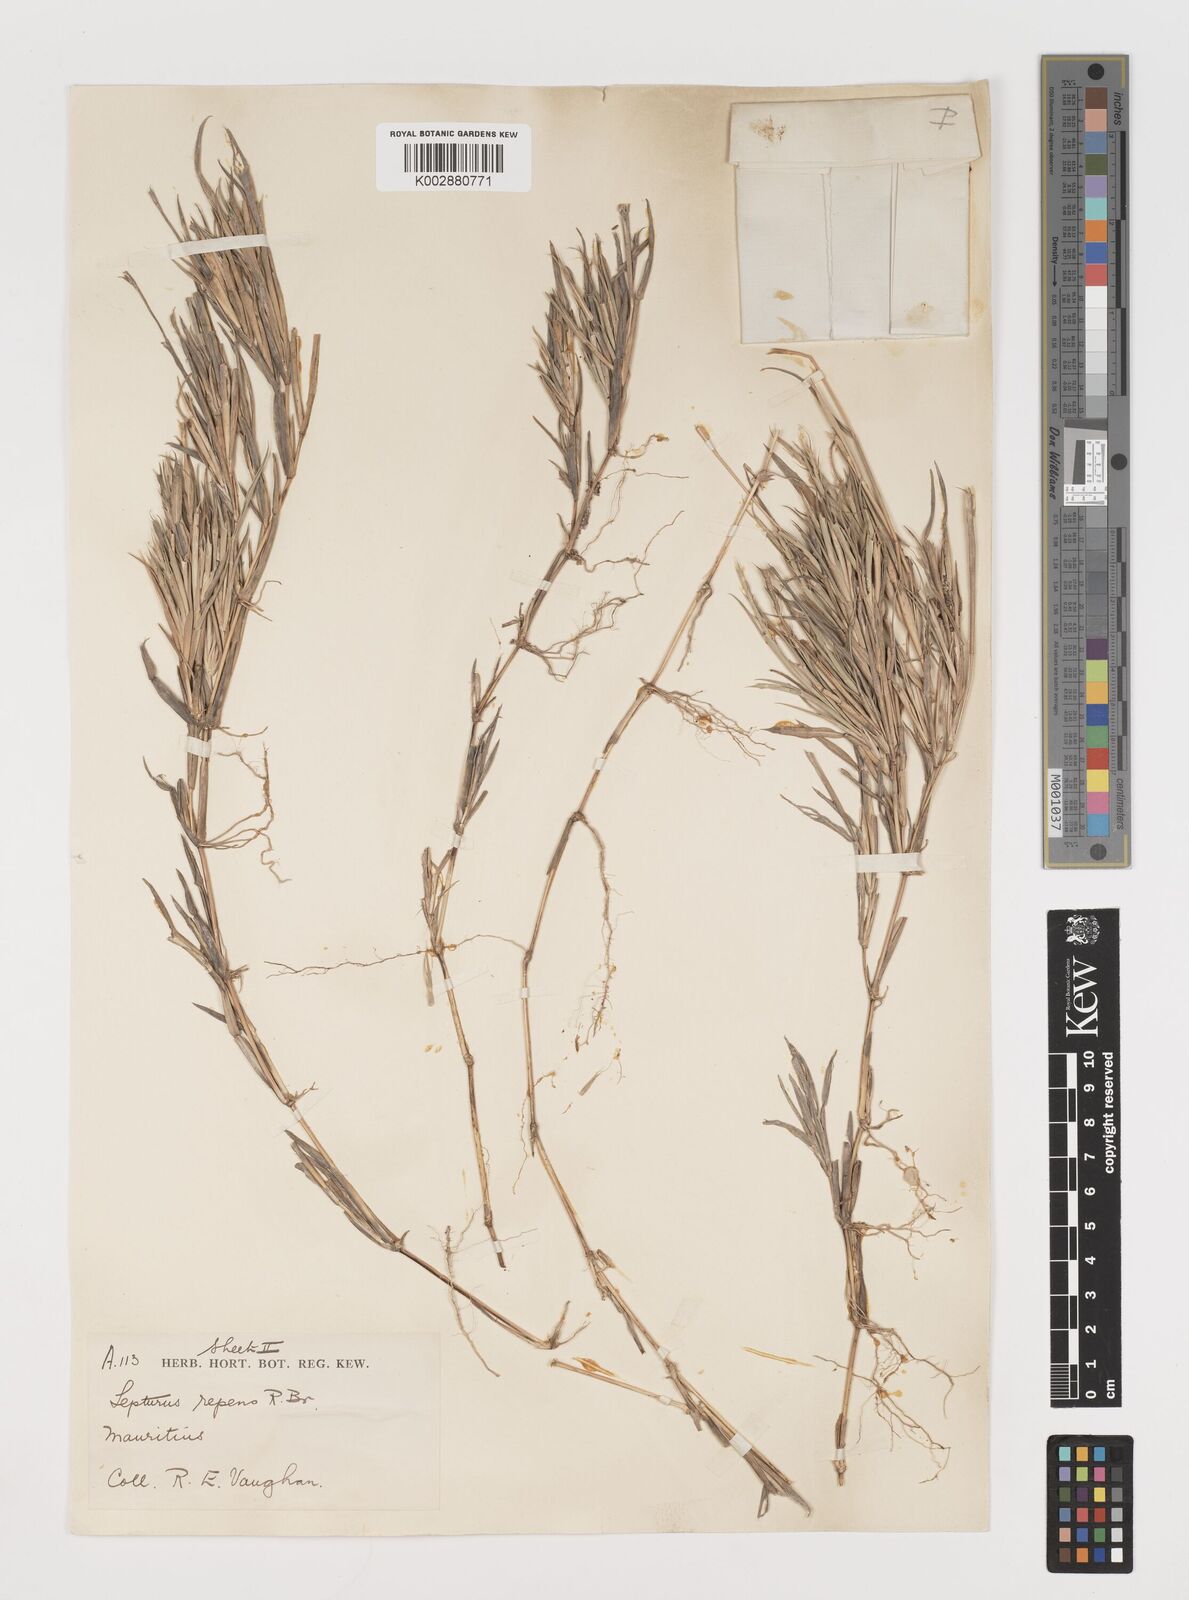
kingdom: Plantae
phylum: Tracheophyta
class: Liliopsida
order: Poales
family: Poaceae
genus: Lepturus
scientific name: Lepturus repens
